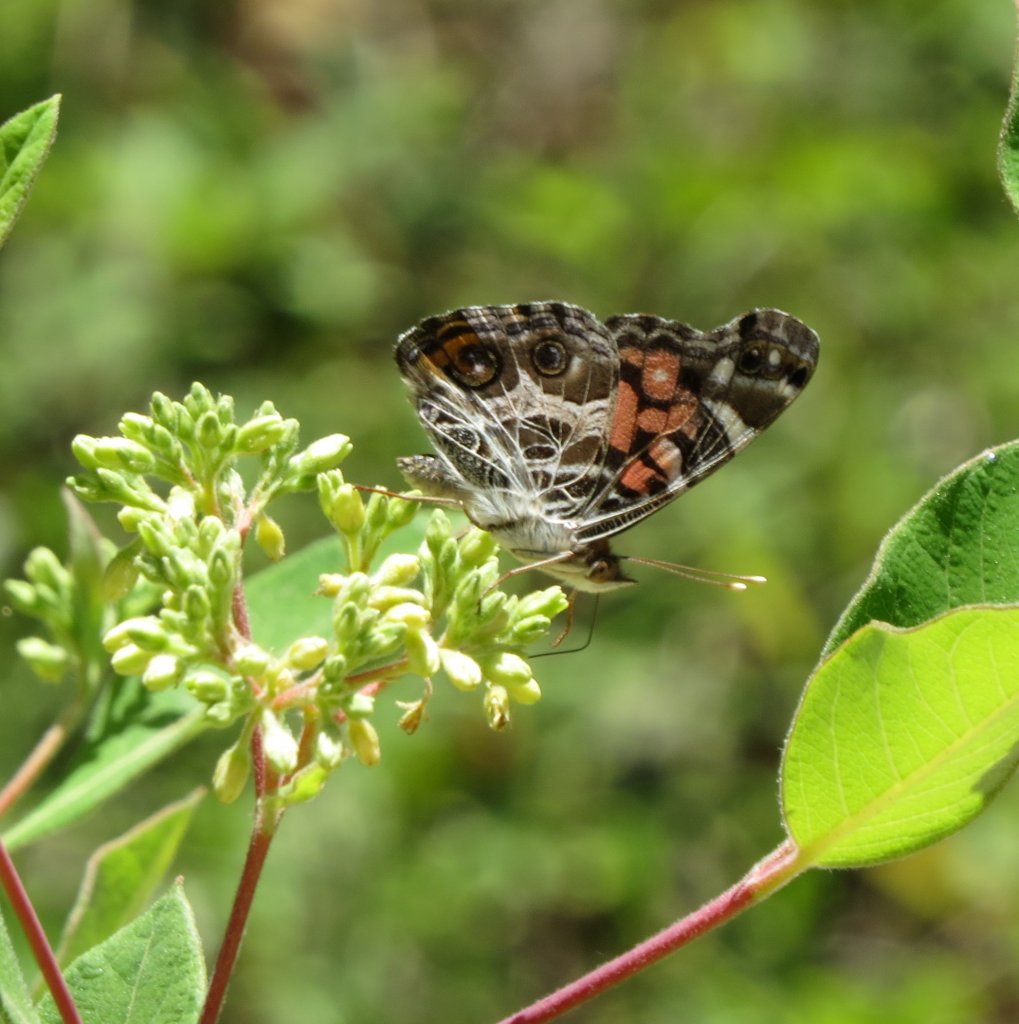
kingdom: Animalia
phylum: Arthropoda
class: Insecta
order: Lepidoptera
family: Nymphalidae
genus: Vanessa
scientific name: Vanessa virginiensis
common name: American Lady
